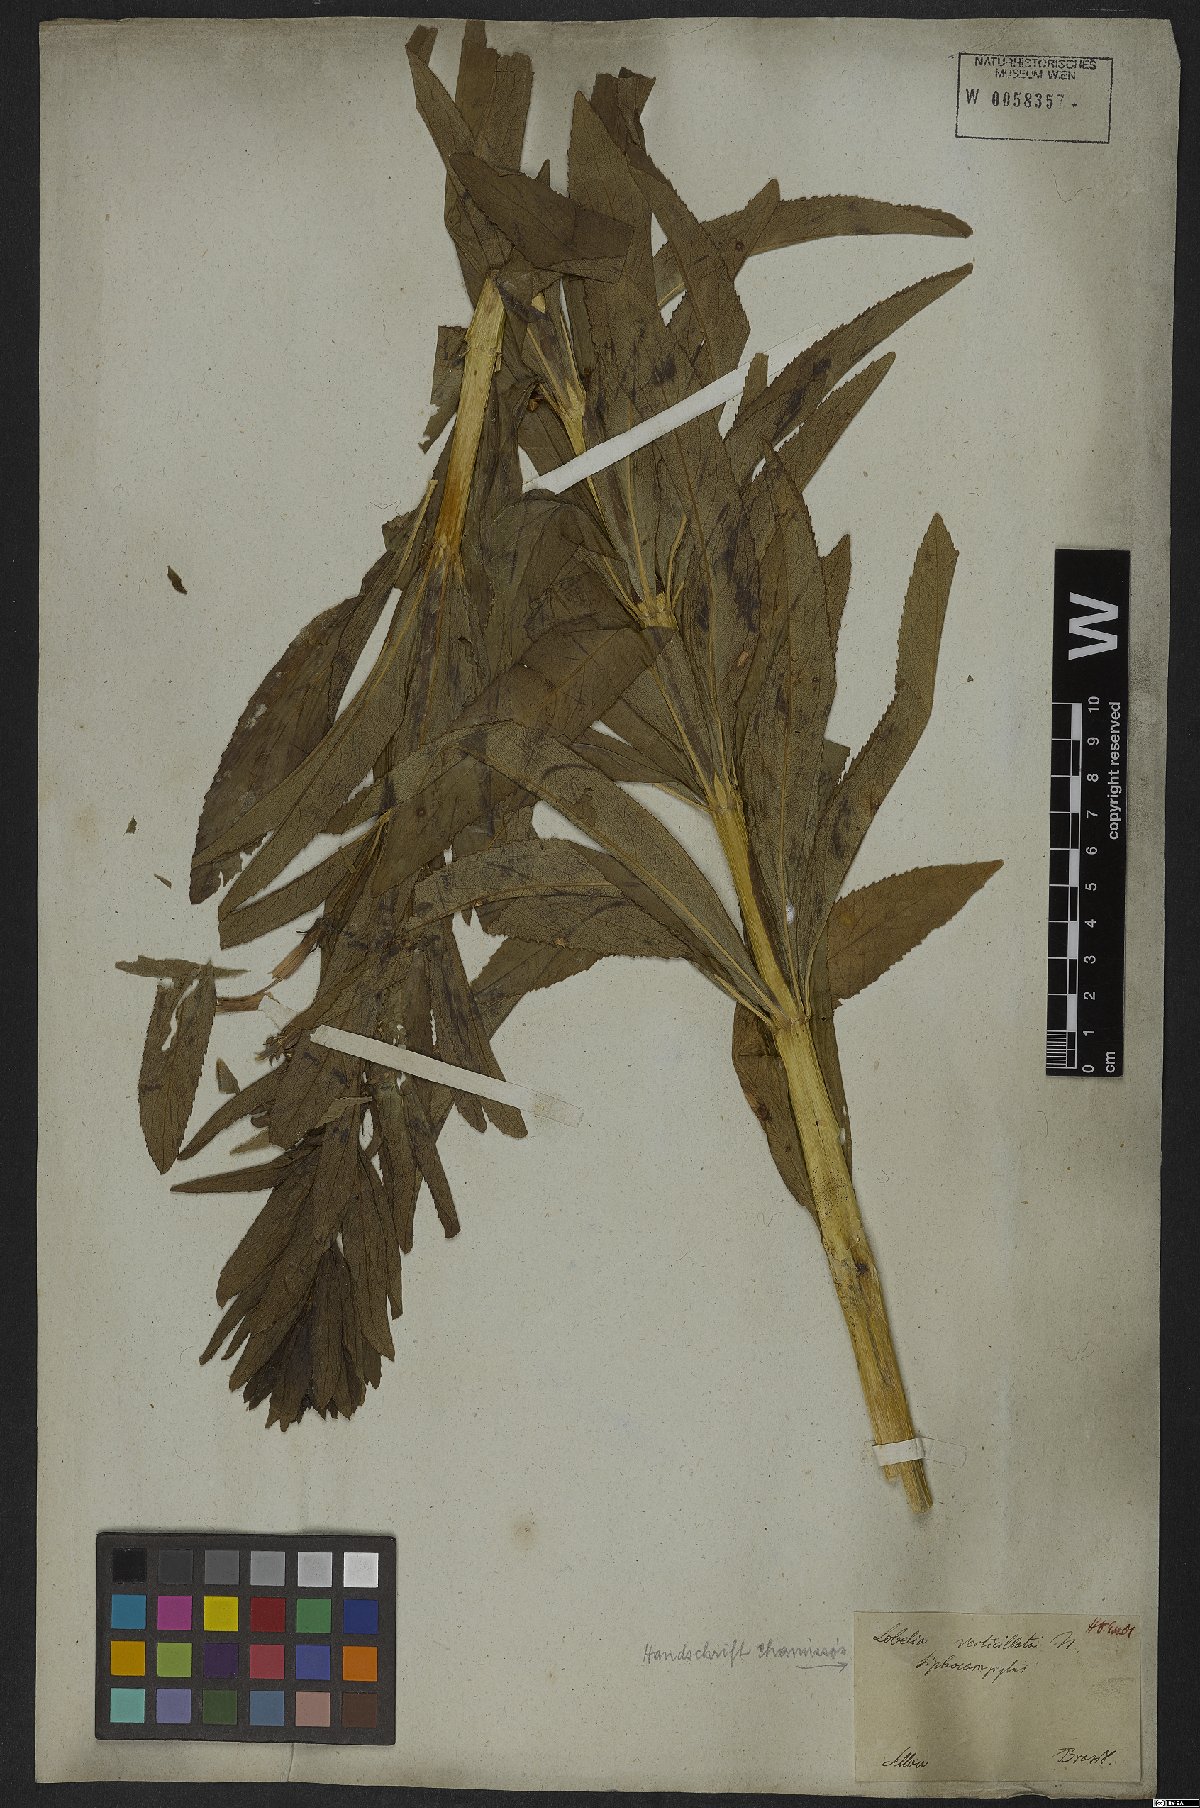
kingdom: Plantae
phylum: Tracheophyta
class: Magnoliopsida
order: Asterales
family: Campanulaceae
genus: Siphocampylus
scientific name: Siphocampylus verticillatus
